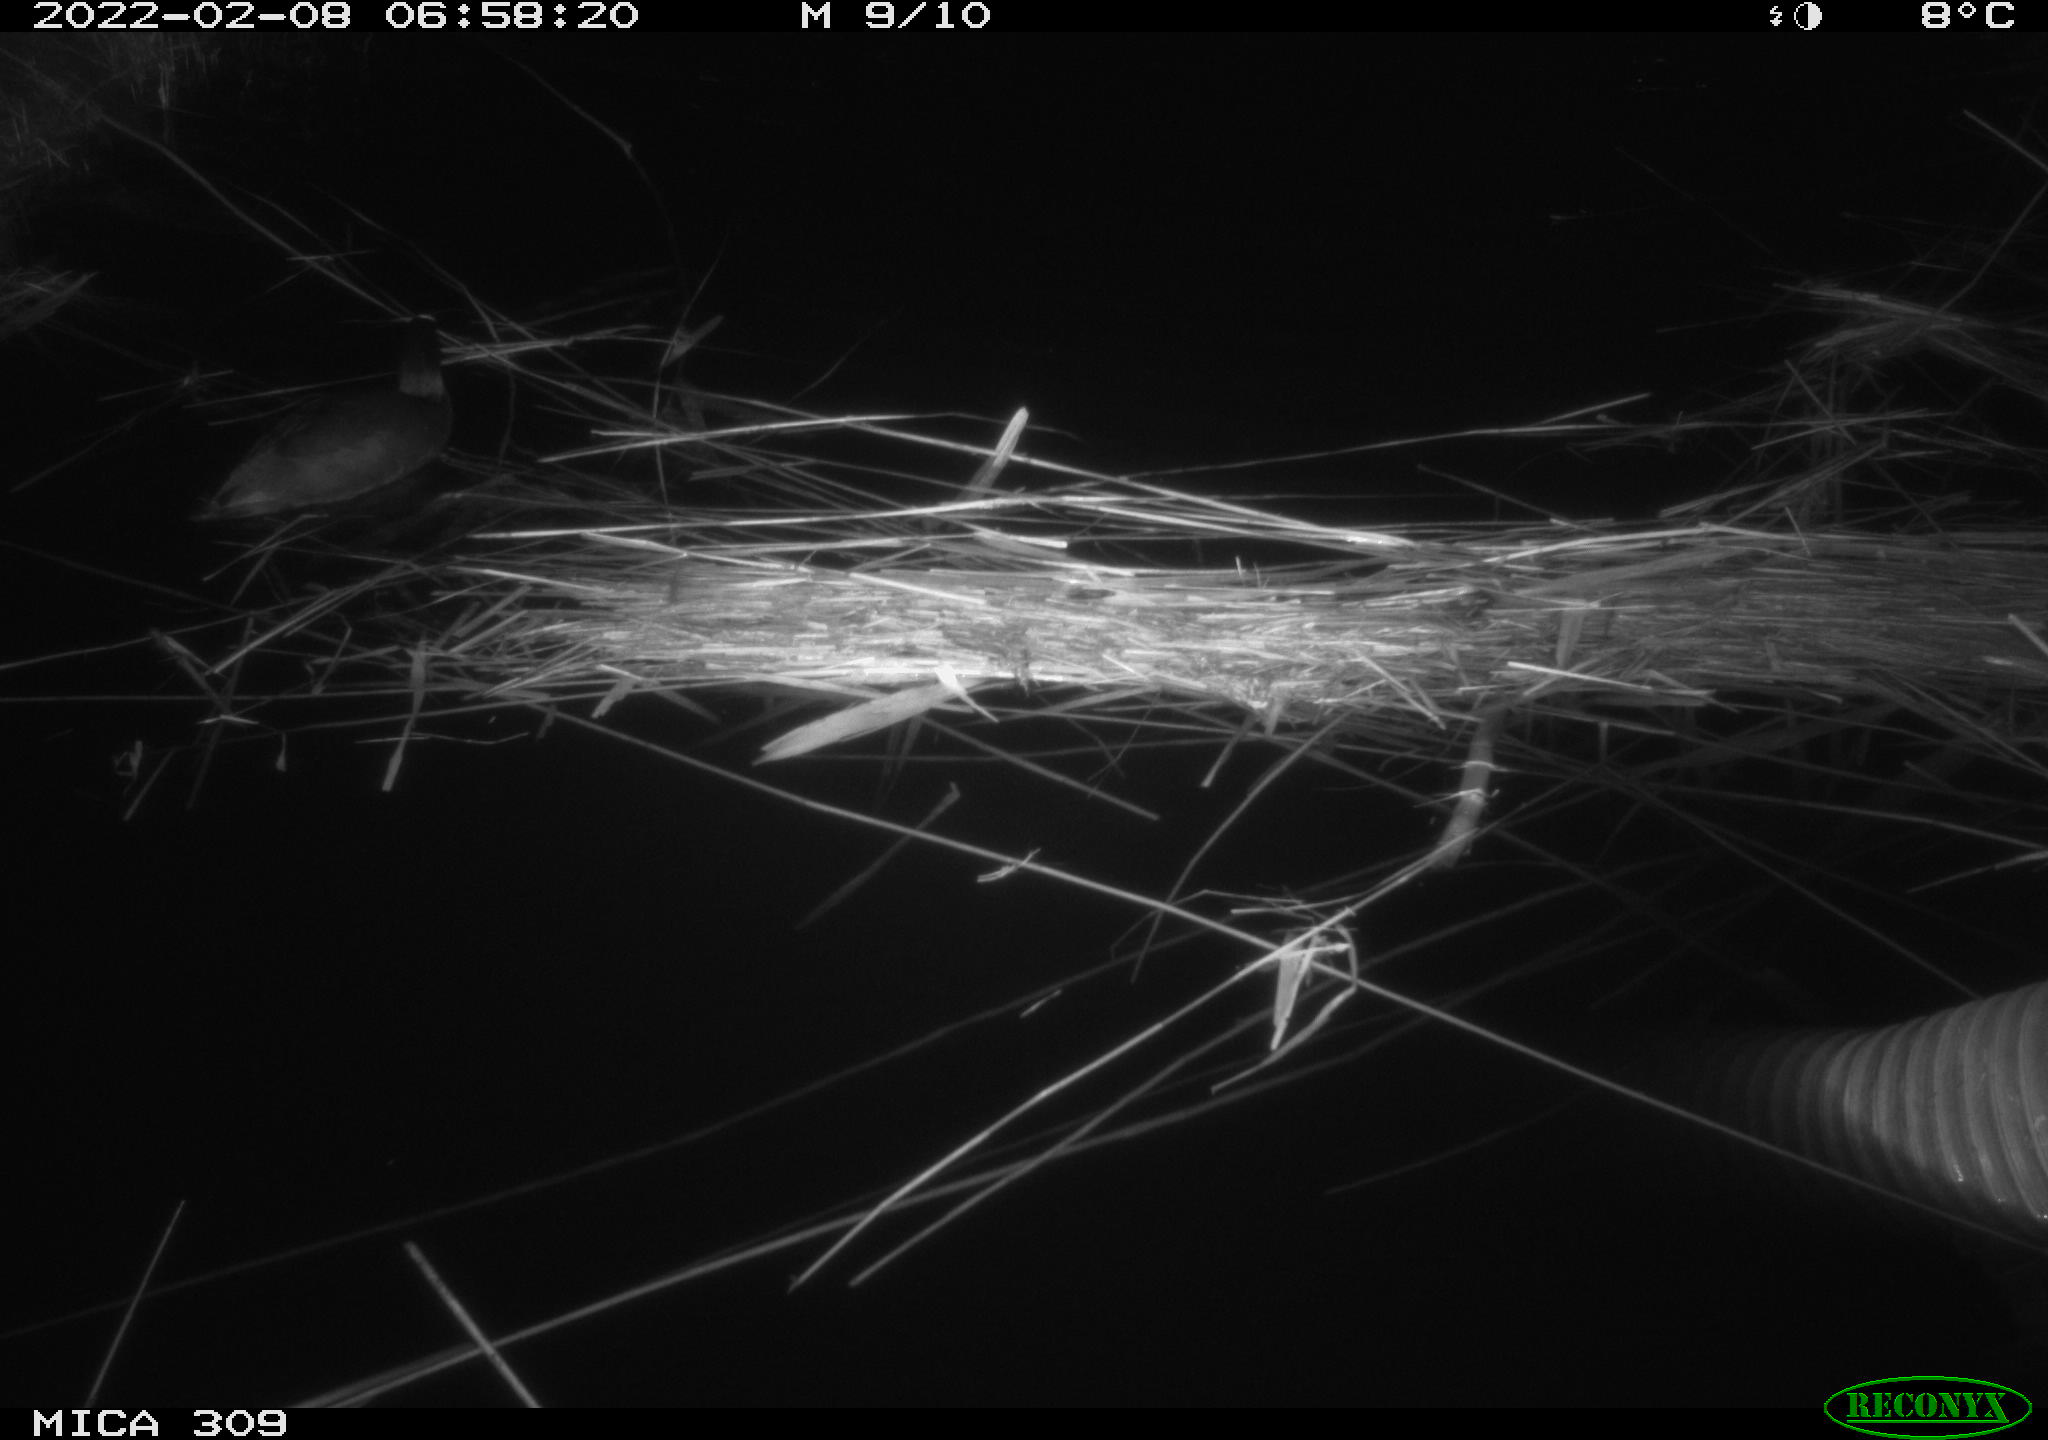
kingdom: Animalia
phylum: Chordata
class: Aves
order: Gruiformes
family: Rallidae
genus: Fulica
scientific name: Fulica atra
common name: Eurasian coot
